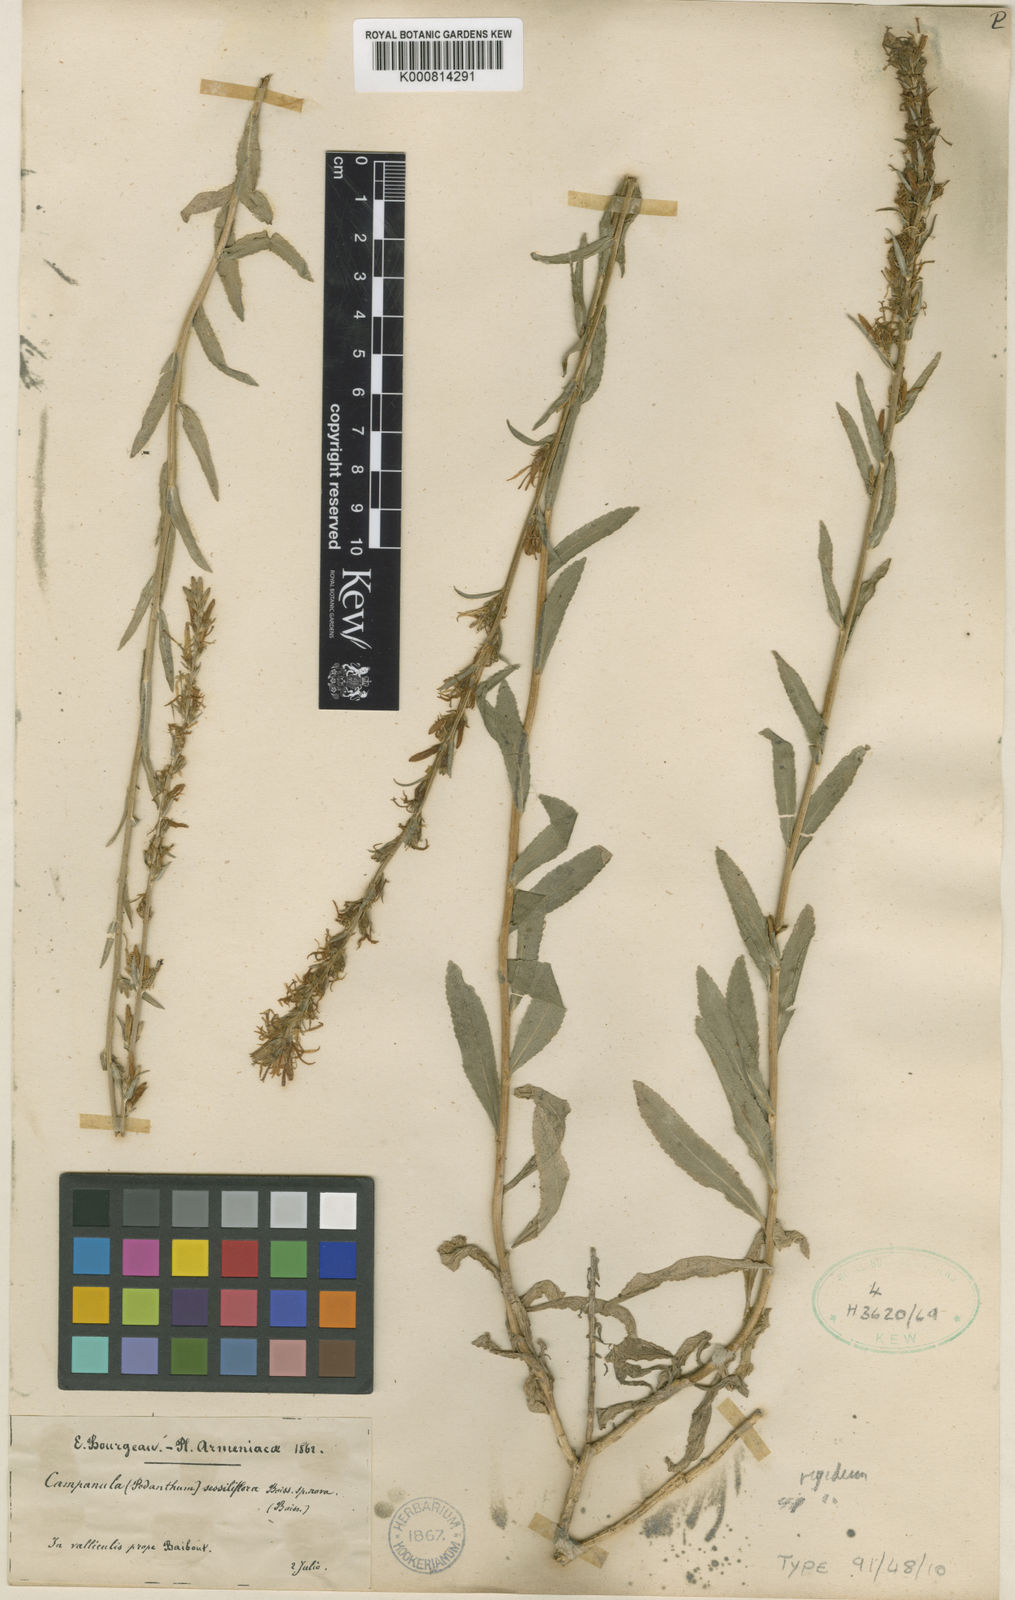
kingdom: Plantae
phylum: Tracheophyta
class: Magnoliopsida
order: Asterales
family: Campanulaceae
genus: Asyneuma
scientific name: Asyneuma rigidum
